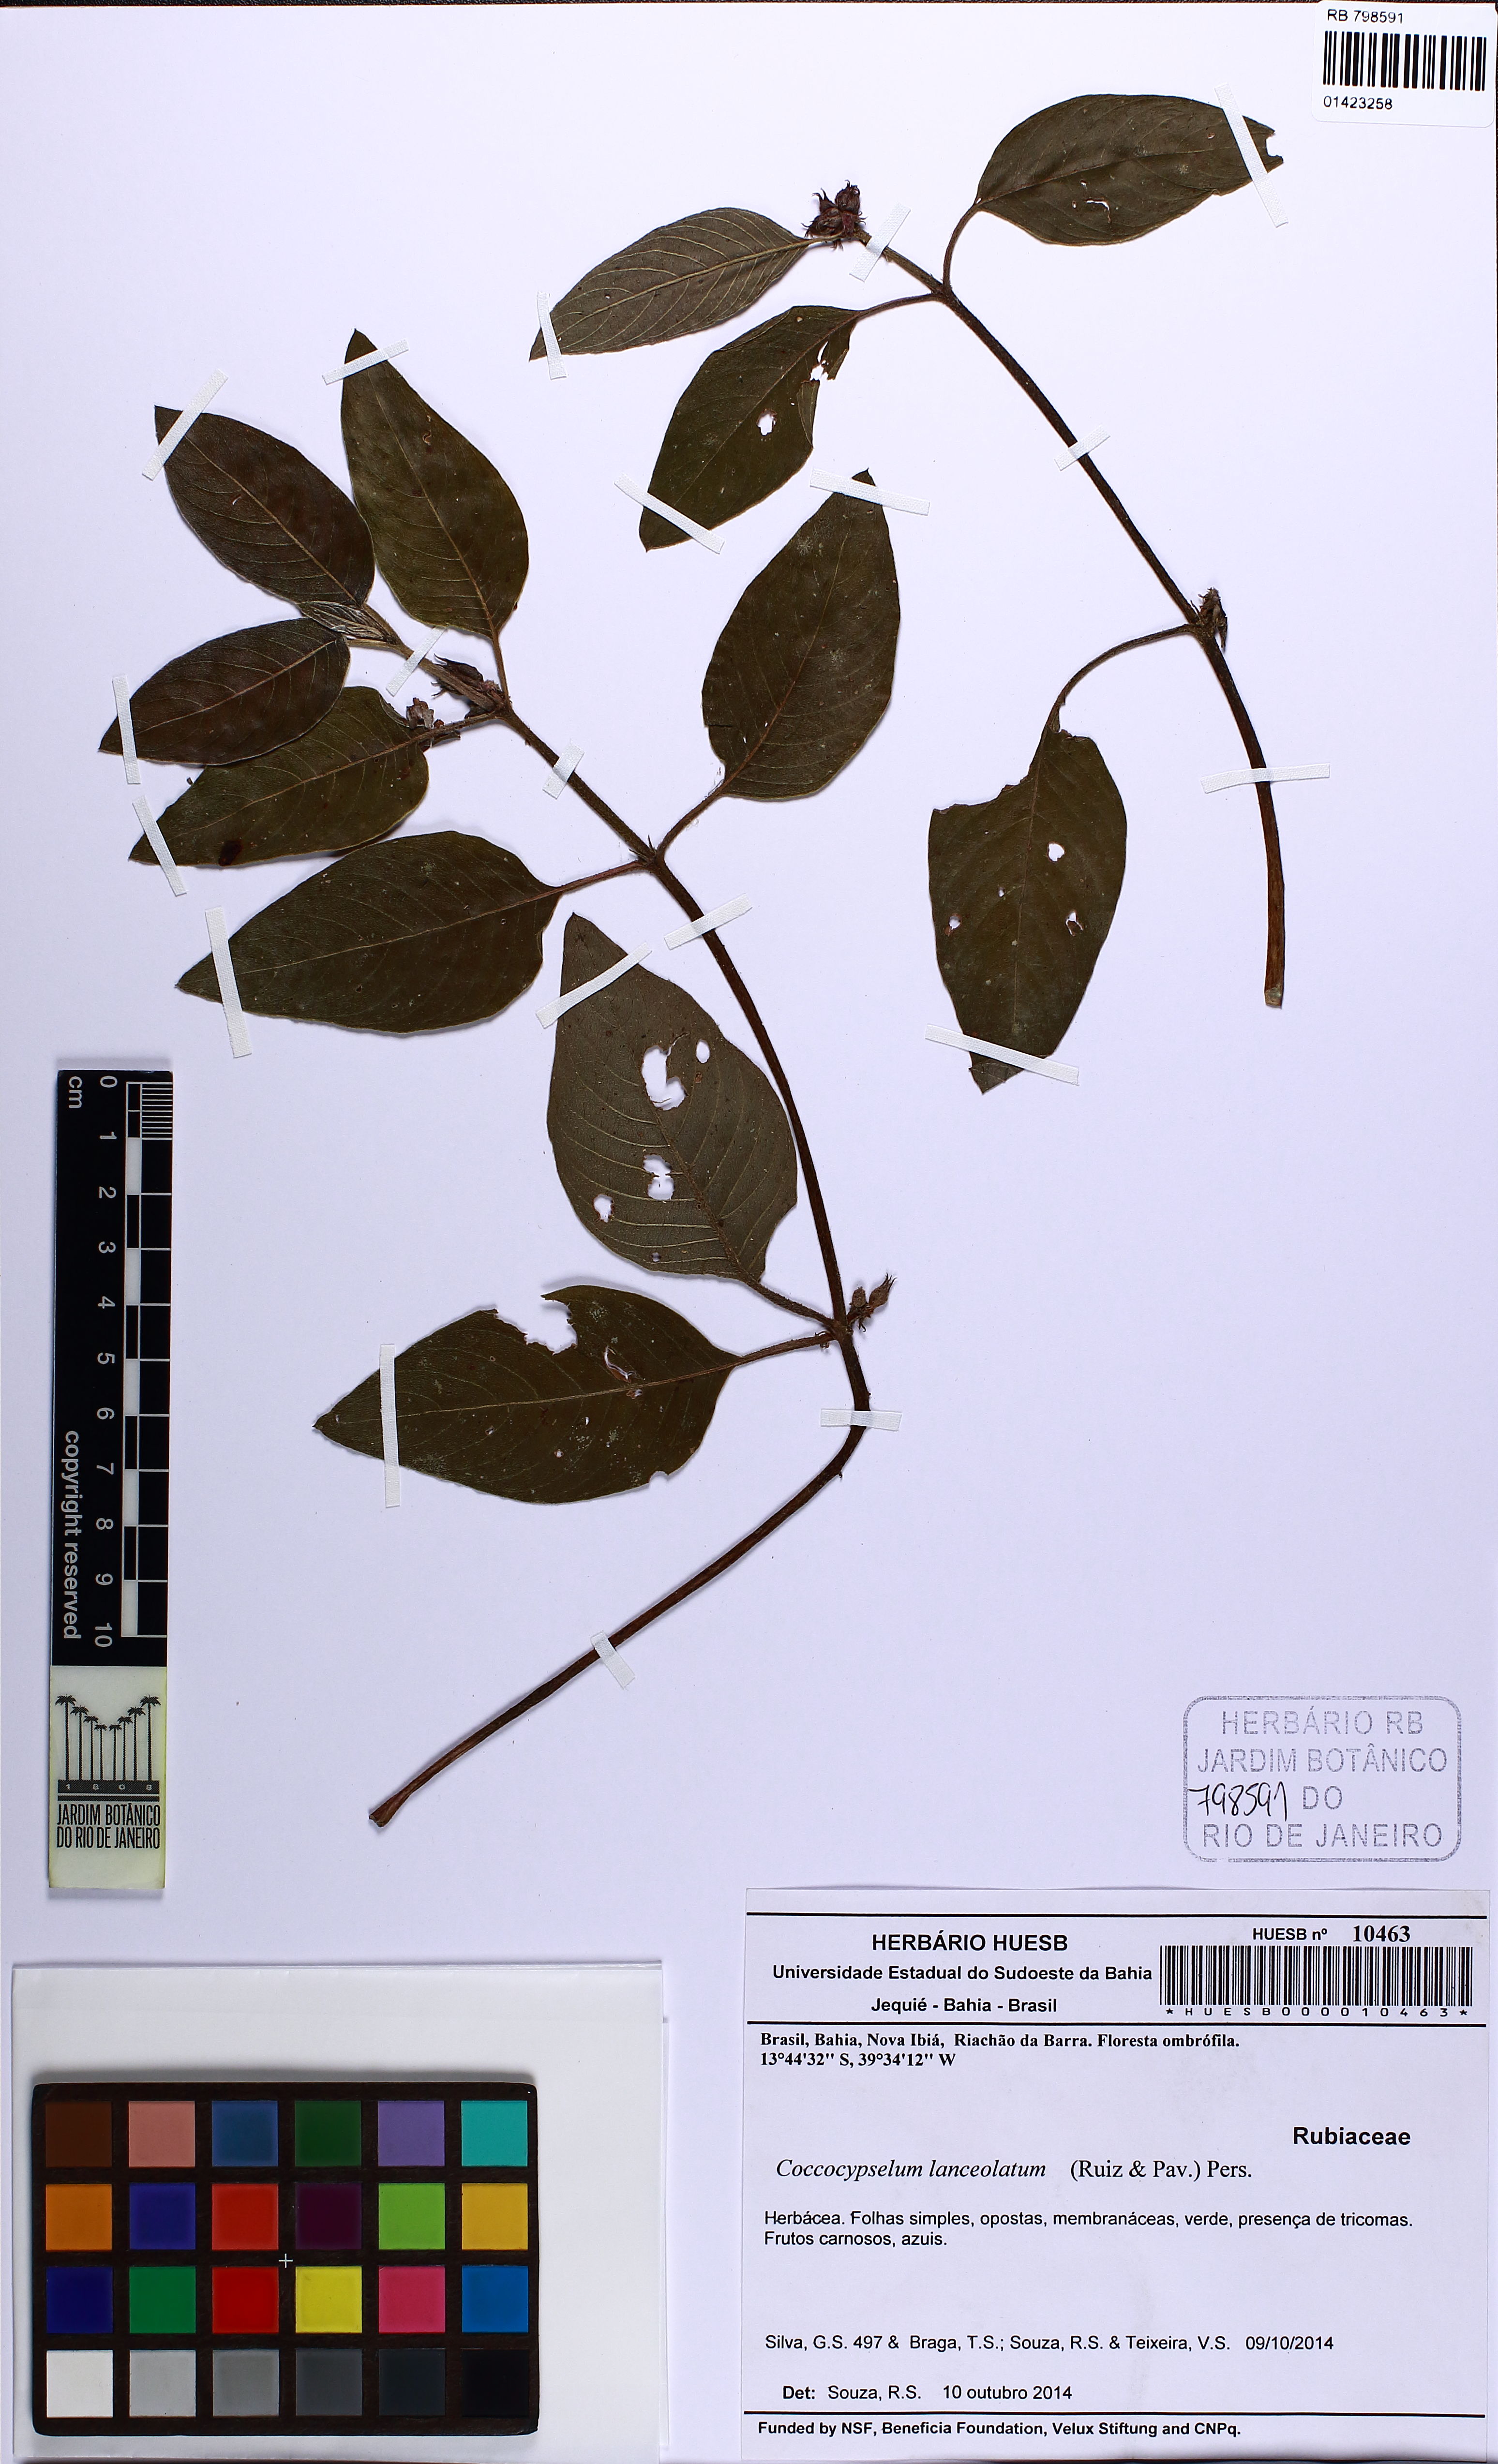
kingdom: Plantae
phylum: Tracheophyta
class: Magnoliopsida
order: Gentianales
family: Rubiaceae
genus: Coccocypselum
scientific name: Coccocypselum lanceolatum
